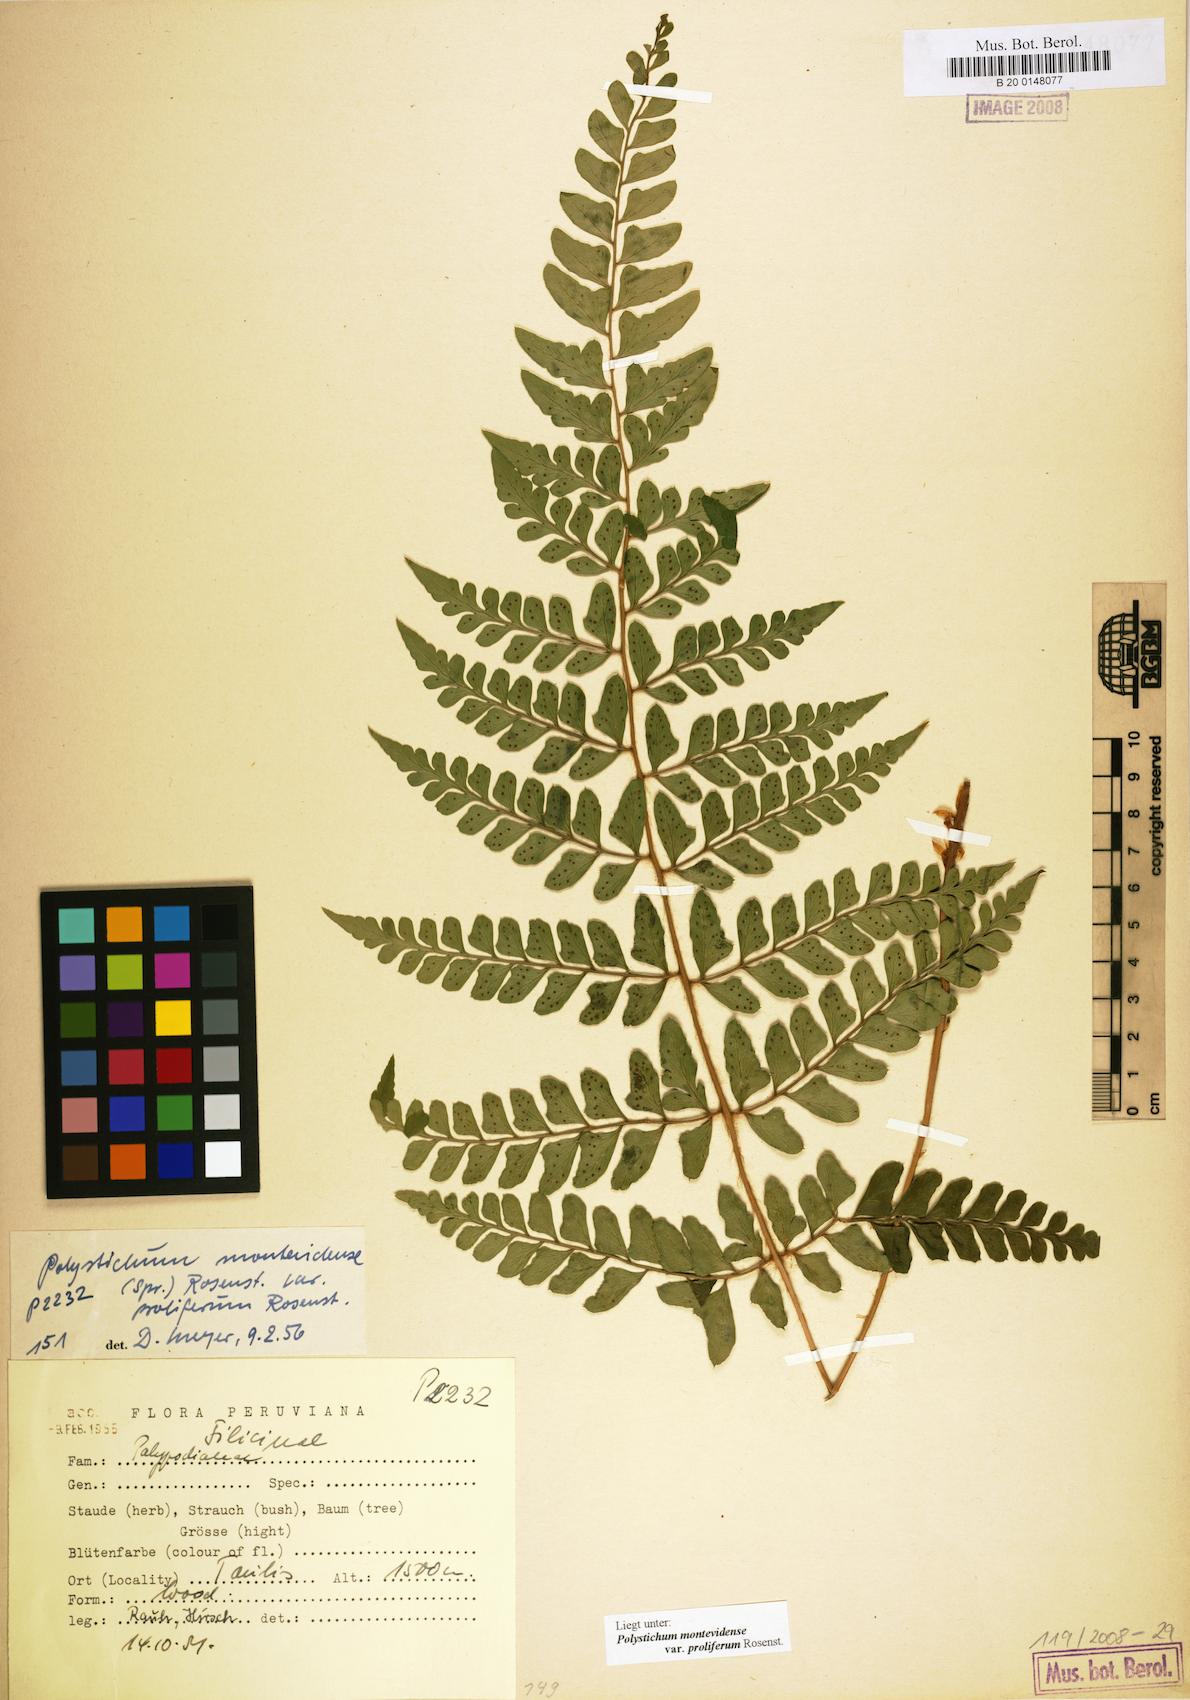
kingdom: Plantae
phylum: Tracheophyta
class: Polypodiopsida
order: Polypodiales
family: Dryopteridaceae
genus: Polystichum
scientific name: Polystichum montevidense
